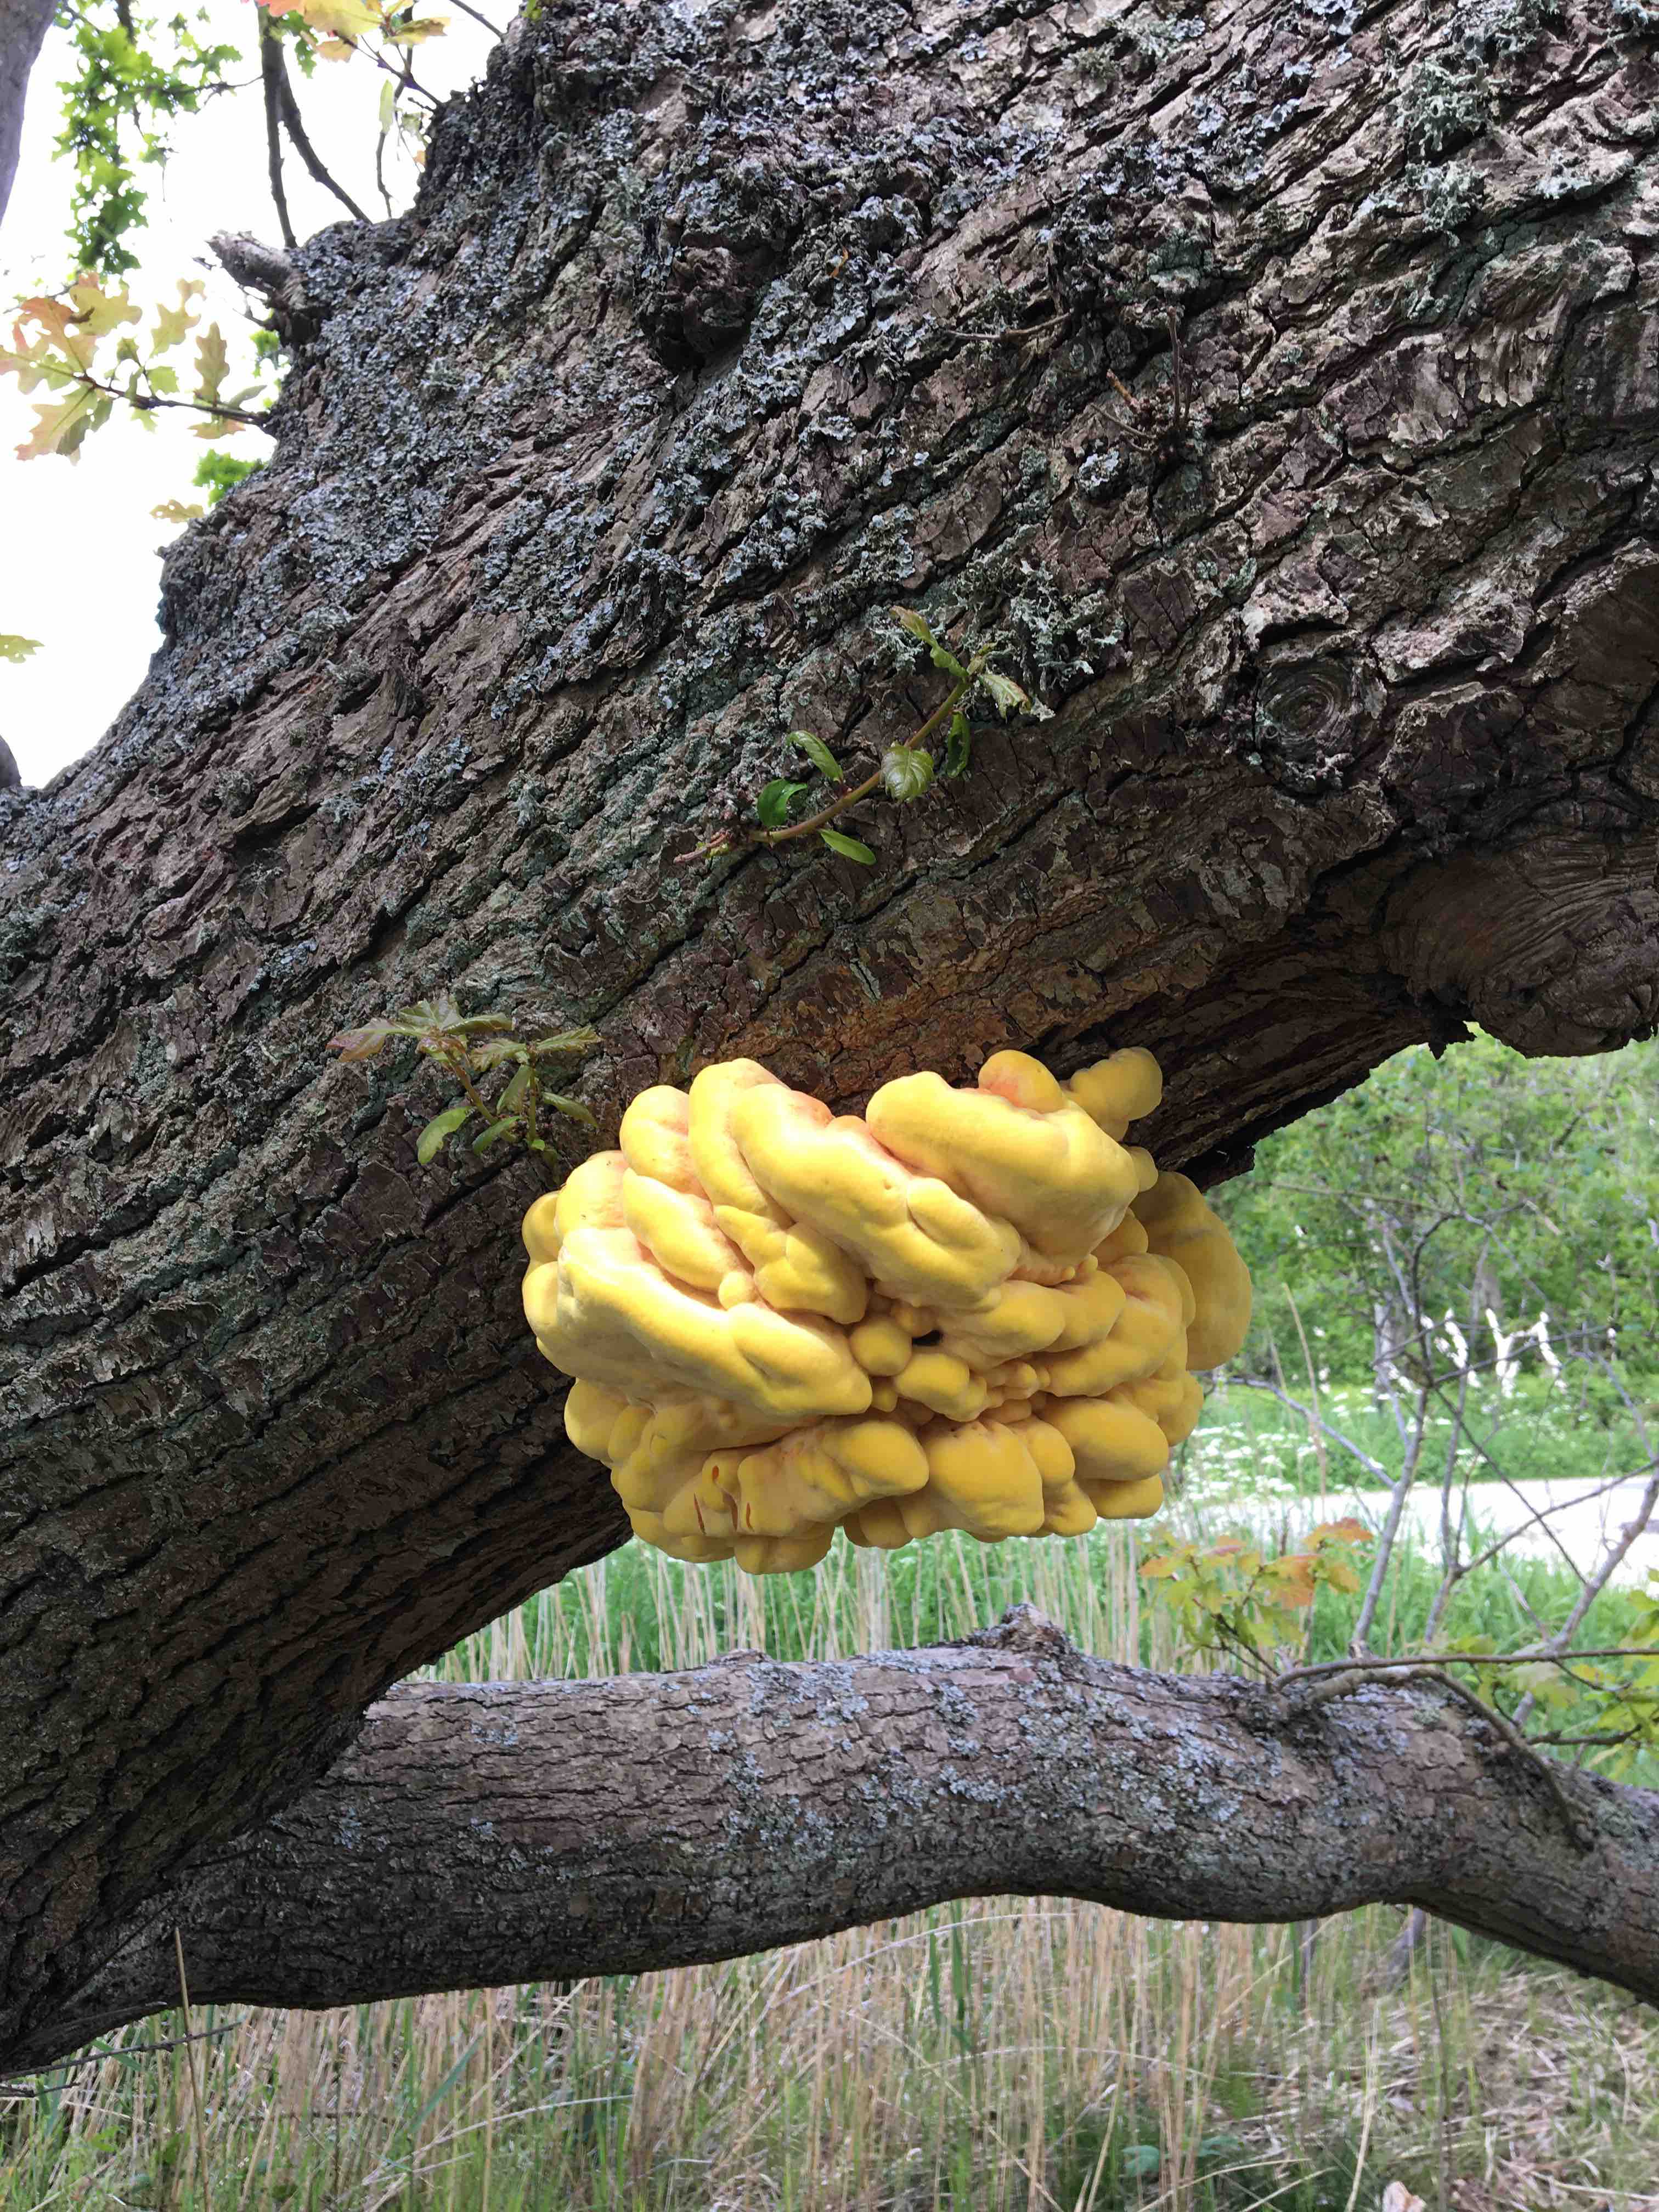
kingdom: Fungi
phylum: Basidiomycota
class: Agaricomycetes
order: Polyporales
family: Laetiporaceae
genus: Laetiporus
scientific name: Laetiporus sulphureus
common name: svovlporesvamp
